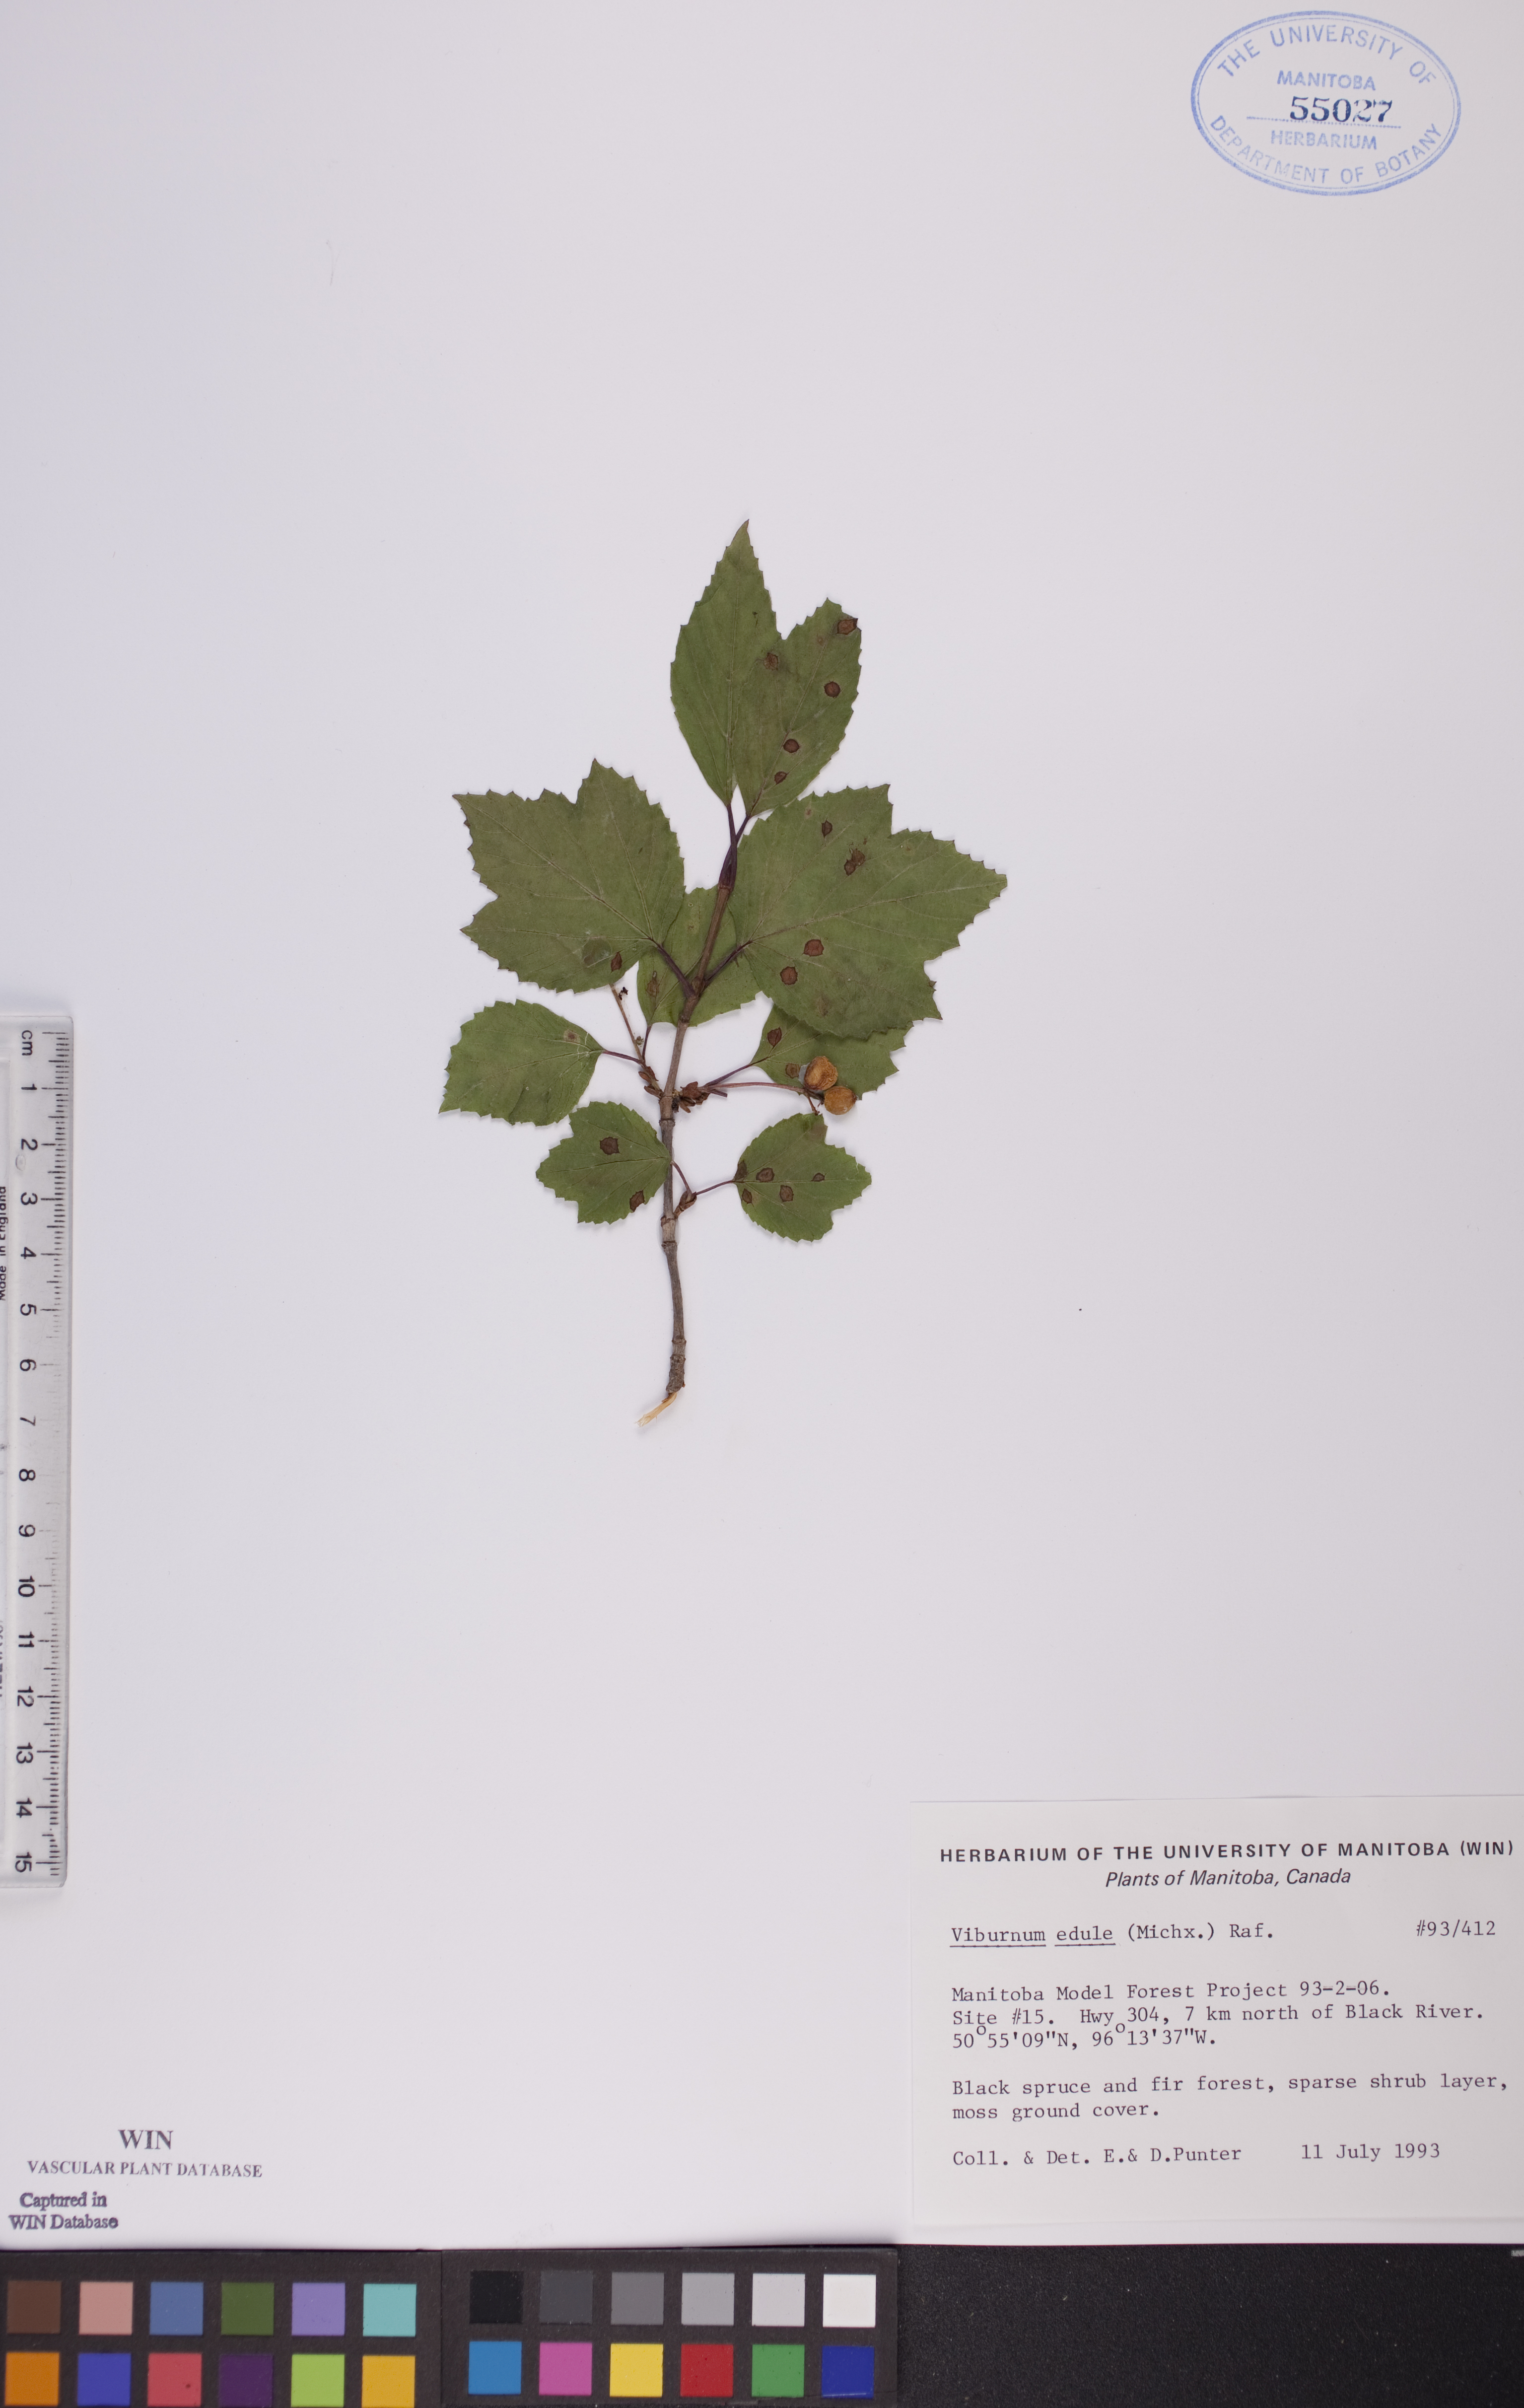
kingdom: Plantae
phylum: Tracheophyta
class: Magnoliopsida
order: Dipsacales
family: Viburnaceae
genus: Viburnum
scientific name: Viburnum edule
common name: Mooseberry
